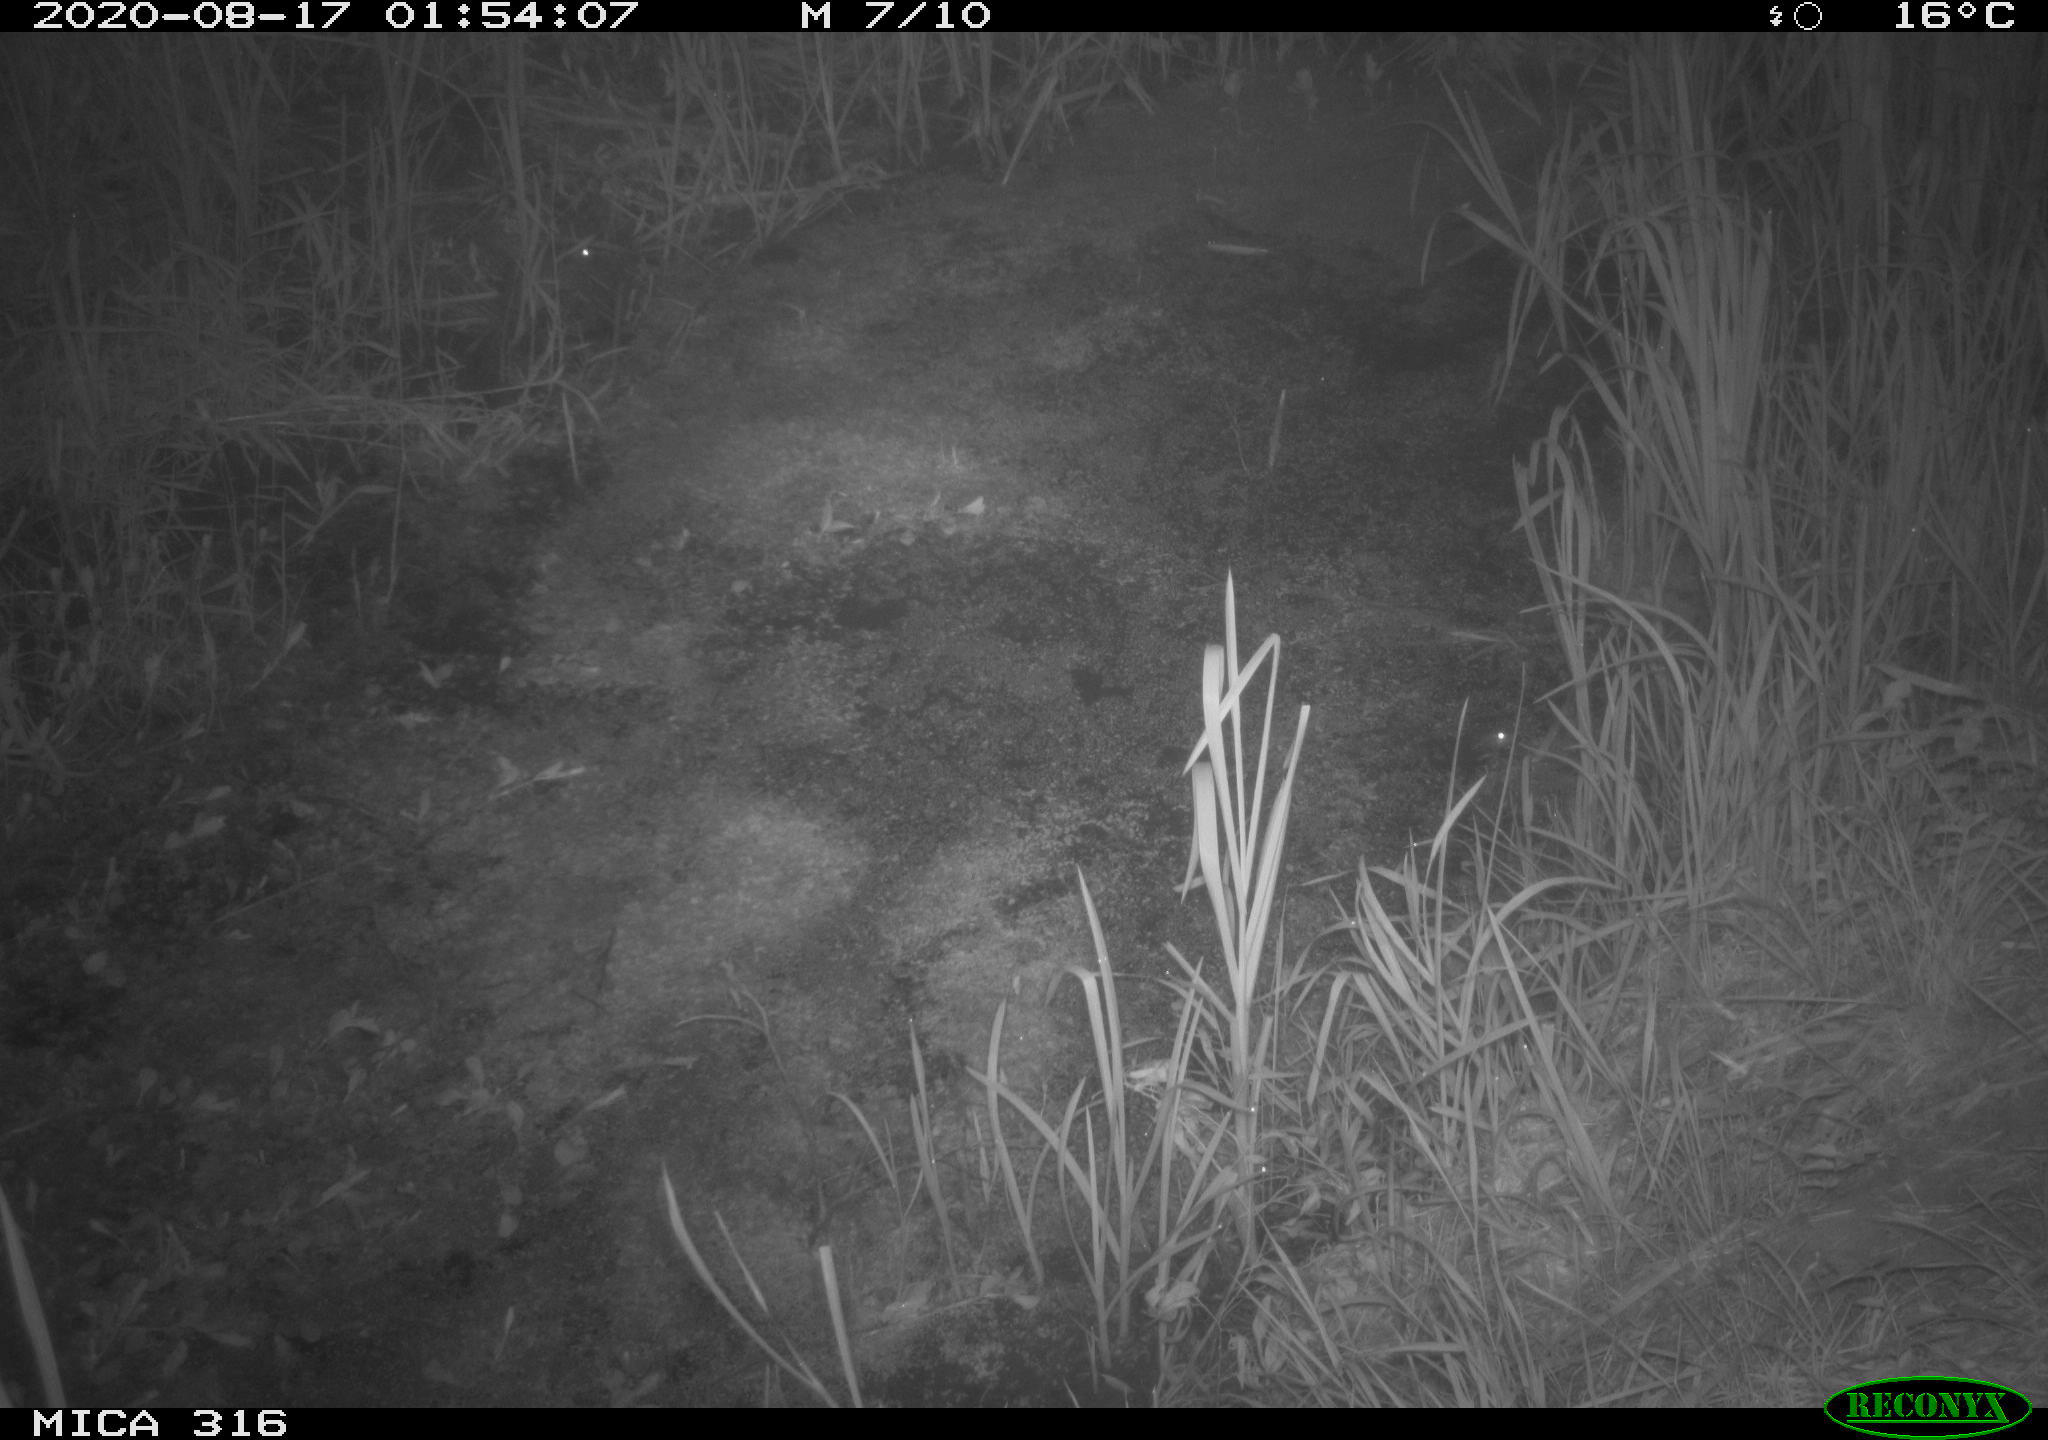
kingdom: Animalia
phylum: Chordata
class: Mammalia
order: Rodentia
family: Muridae
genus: Rattus
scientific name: Rattus norvegicus
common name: Brown rat
